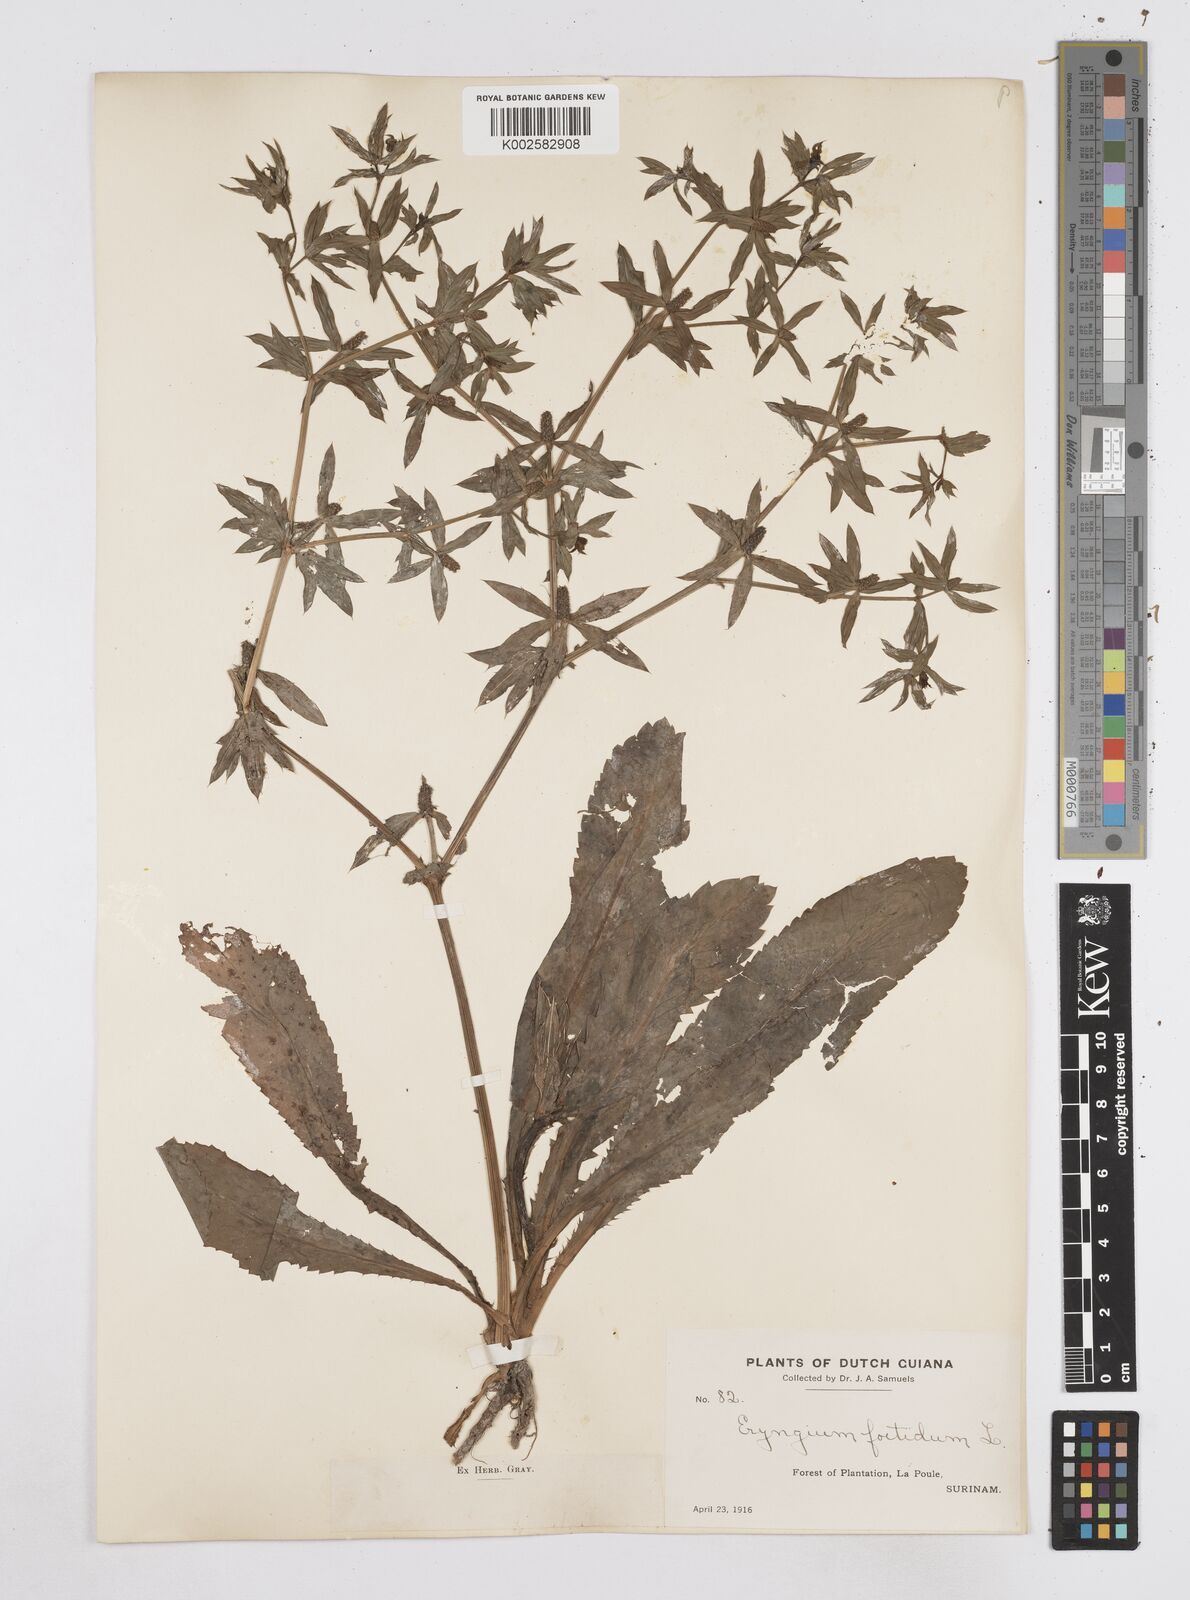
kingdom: Plantae
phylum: Tracheophyta
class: Magnoliopsida
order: Apiales
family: Apiaceae
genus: Eryngium
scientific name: Eryngium foetidum
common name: Fitweed
